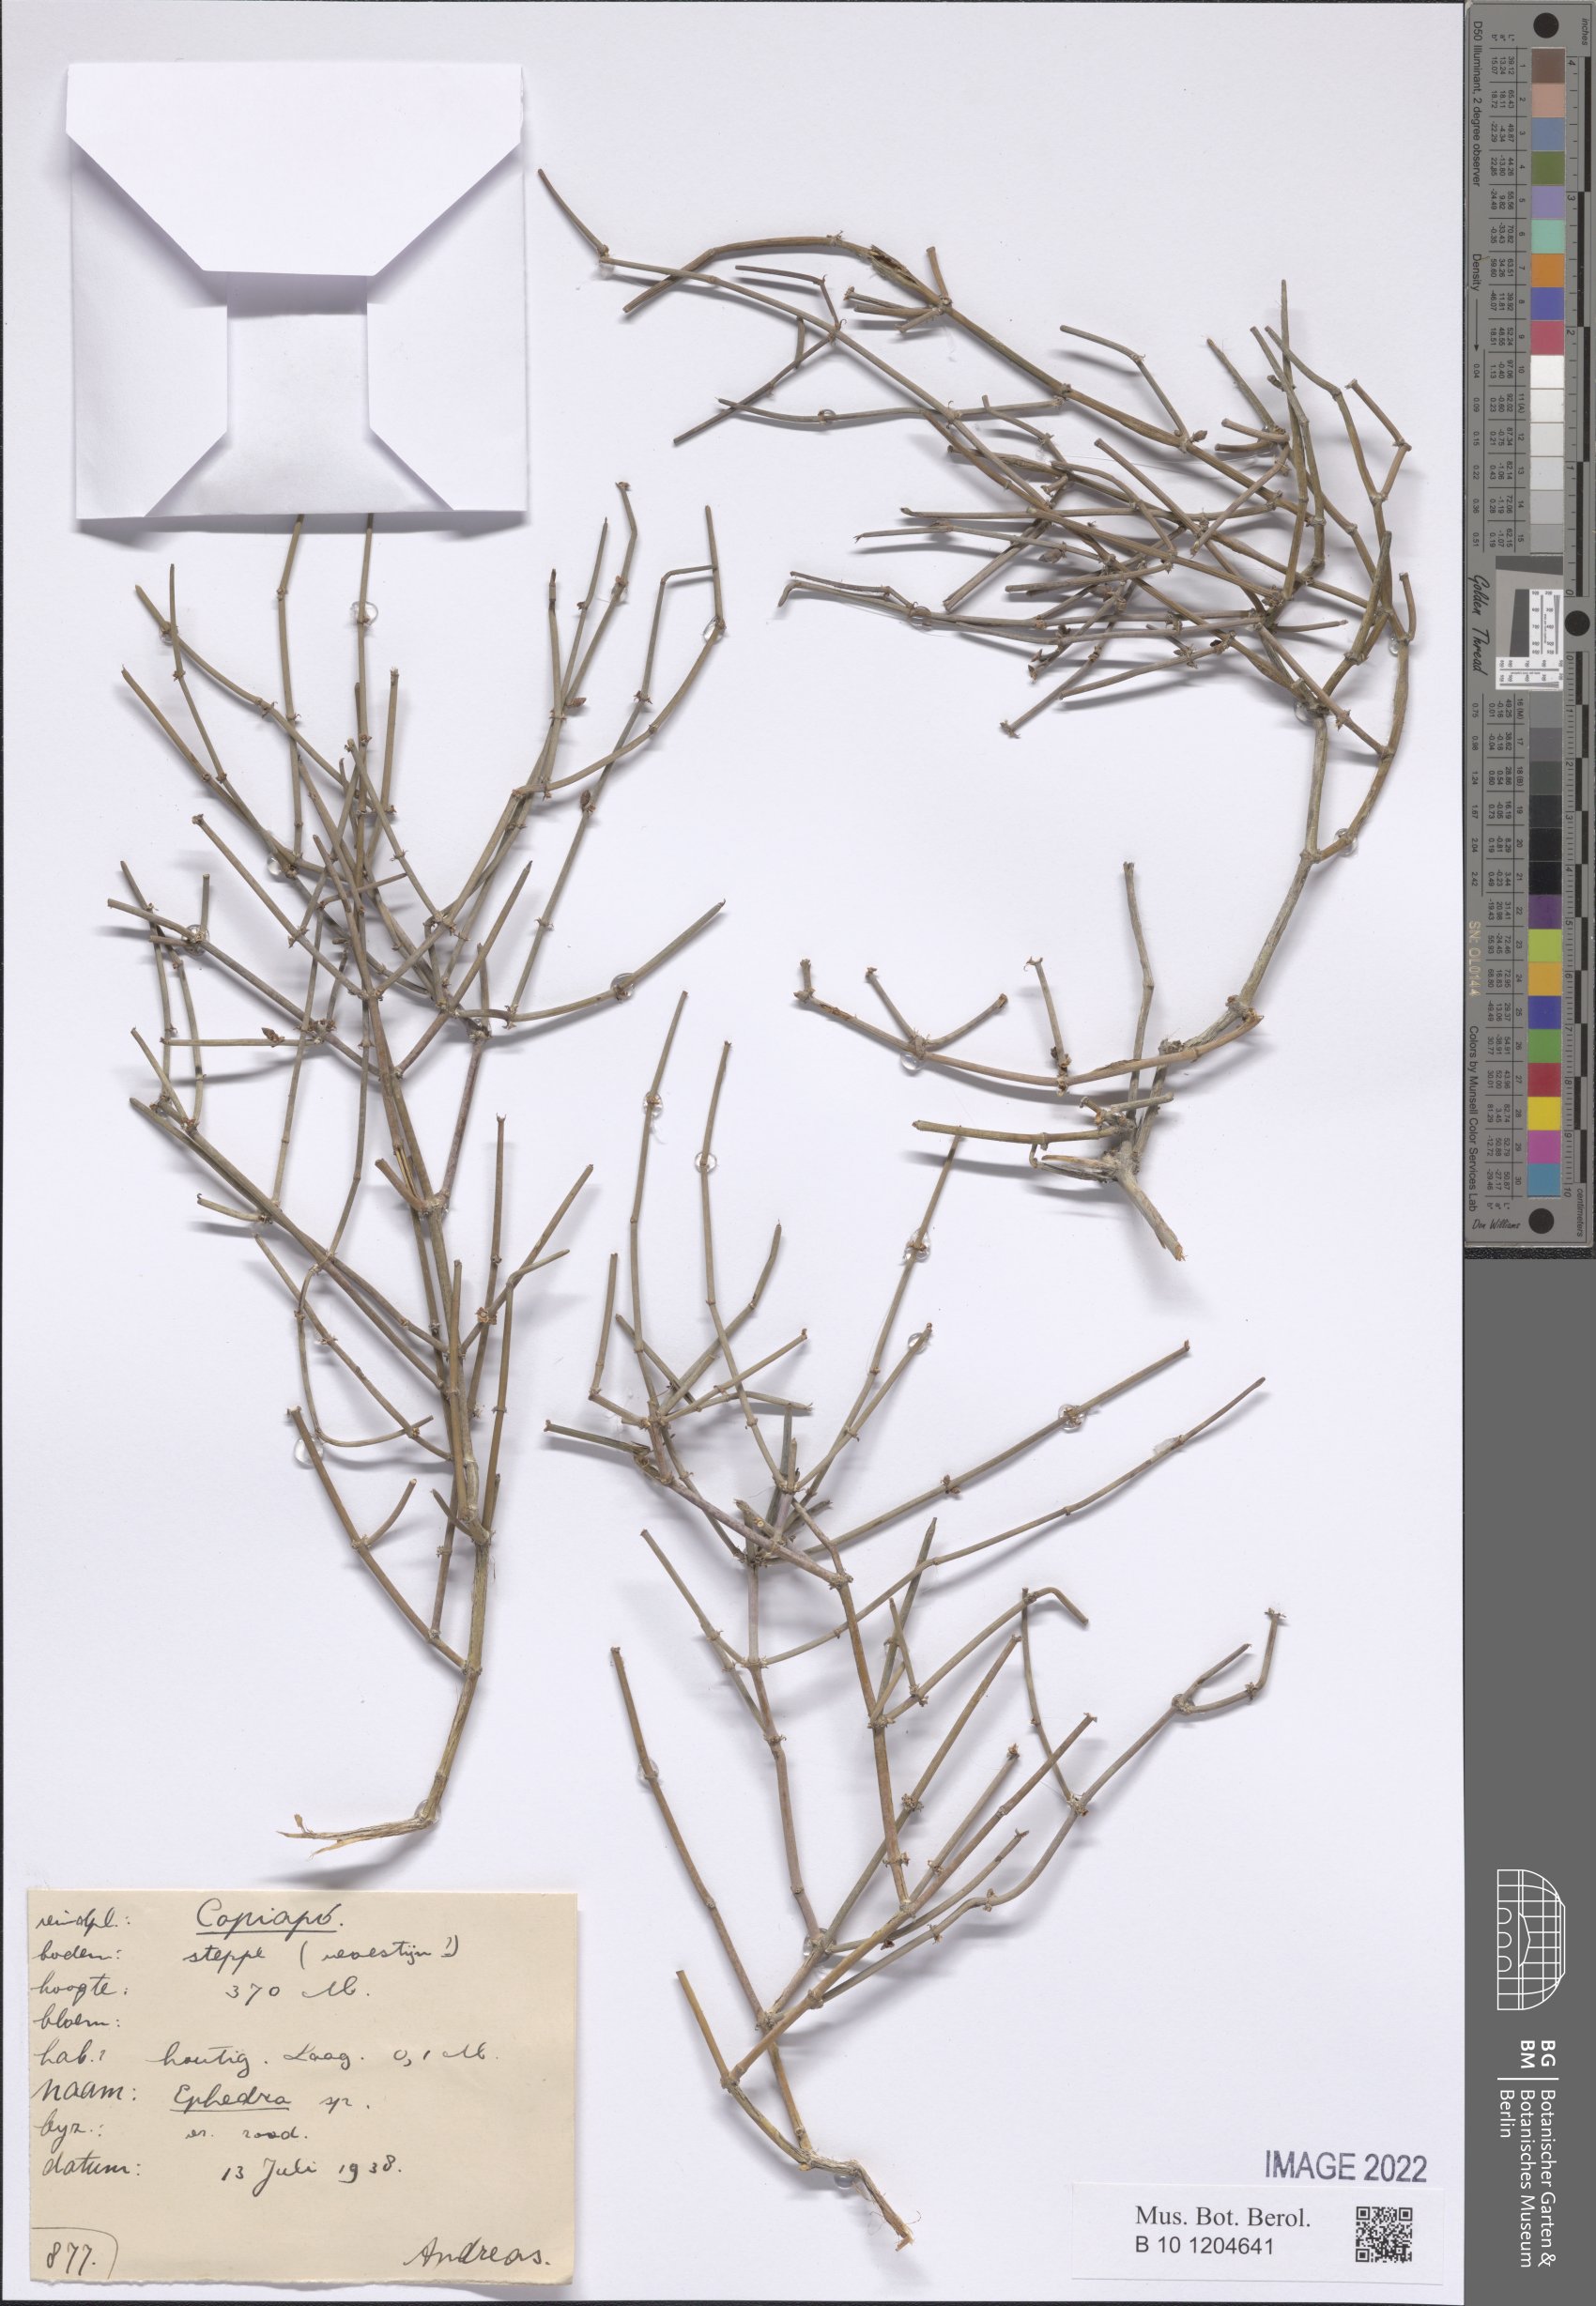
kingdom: Plantae
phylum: Tracheophyta
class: Gnetopsida
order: Ephedrales
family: Ephedraceae
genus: Ephedra
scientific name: Ephedra
